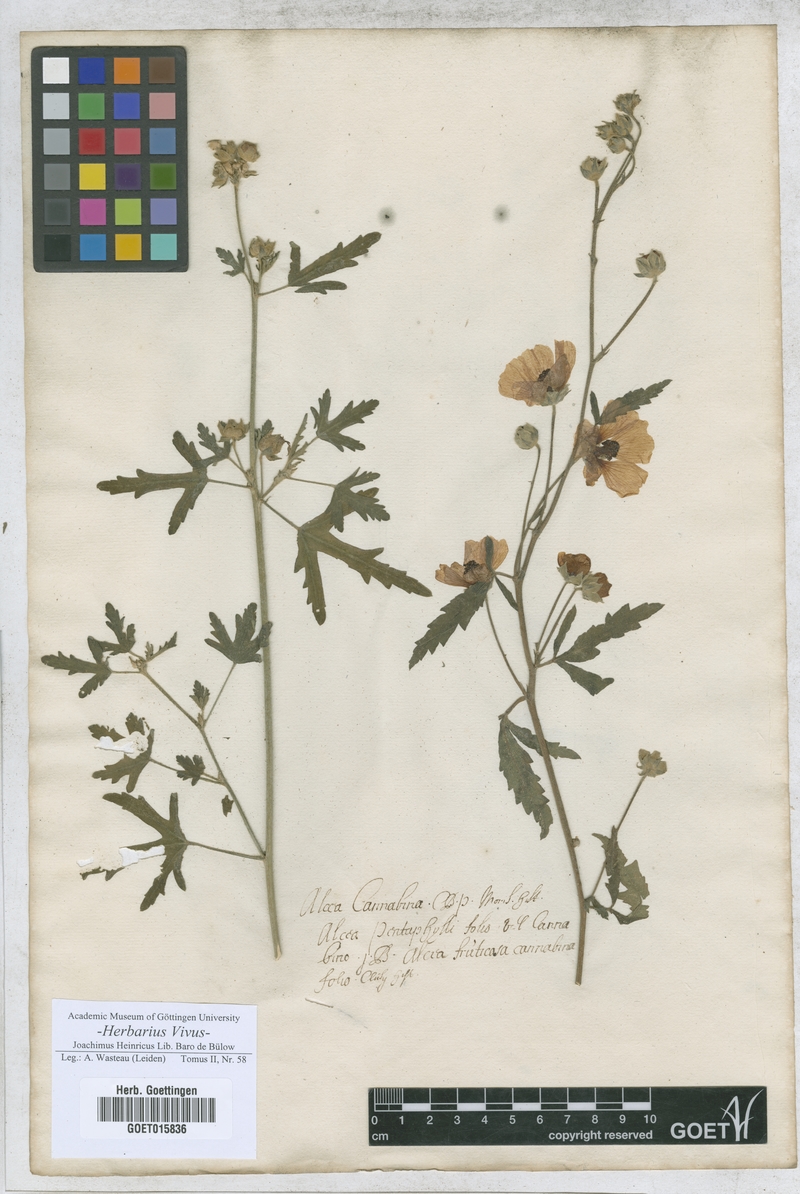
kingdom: Plantae
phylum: Tracheophyta
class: Magnoliopsida
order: Malvales
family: Malvaceae
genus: Alcea
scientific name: Alcea
